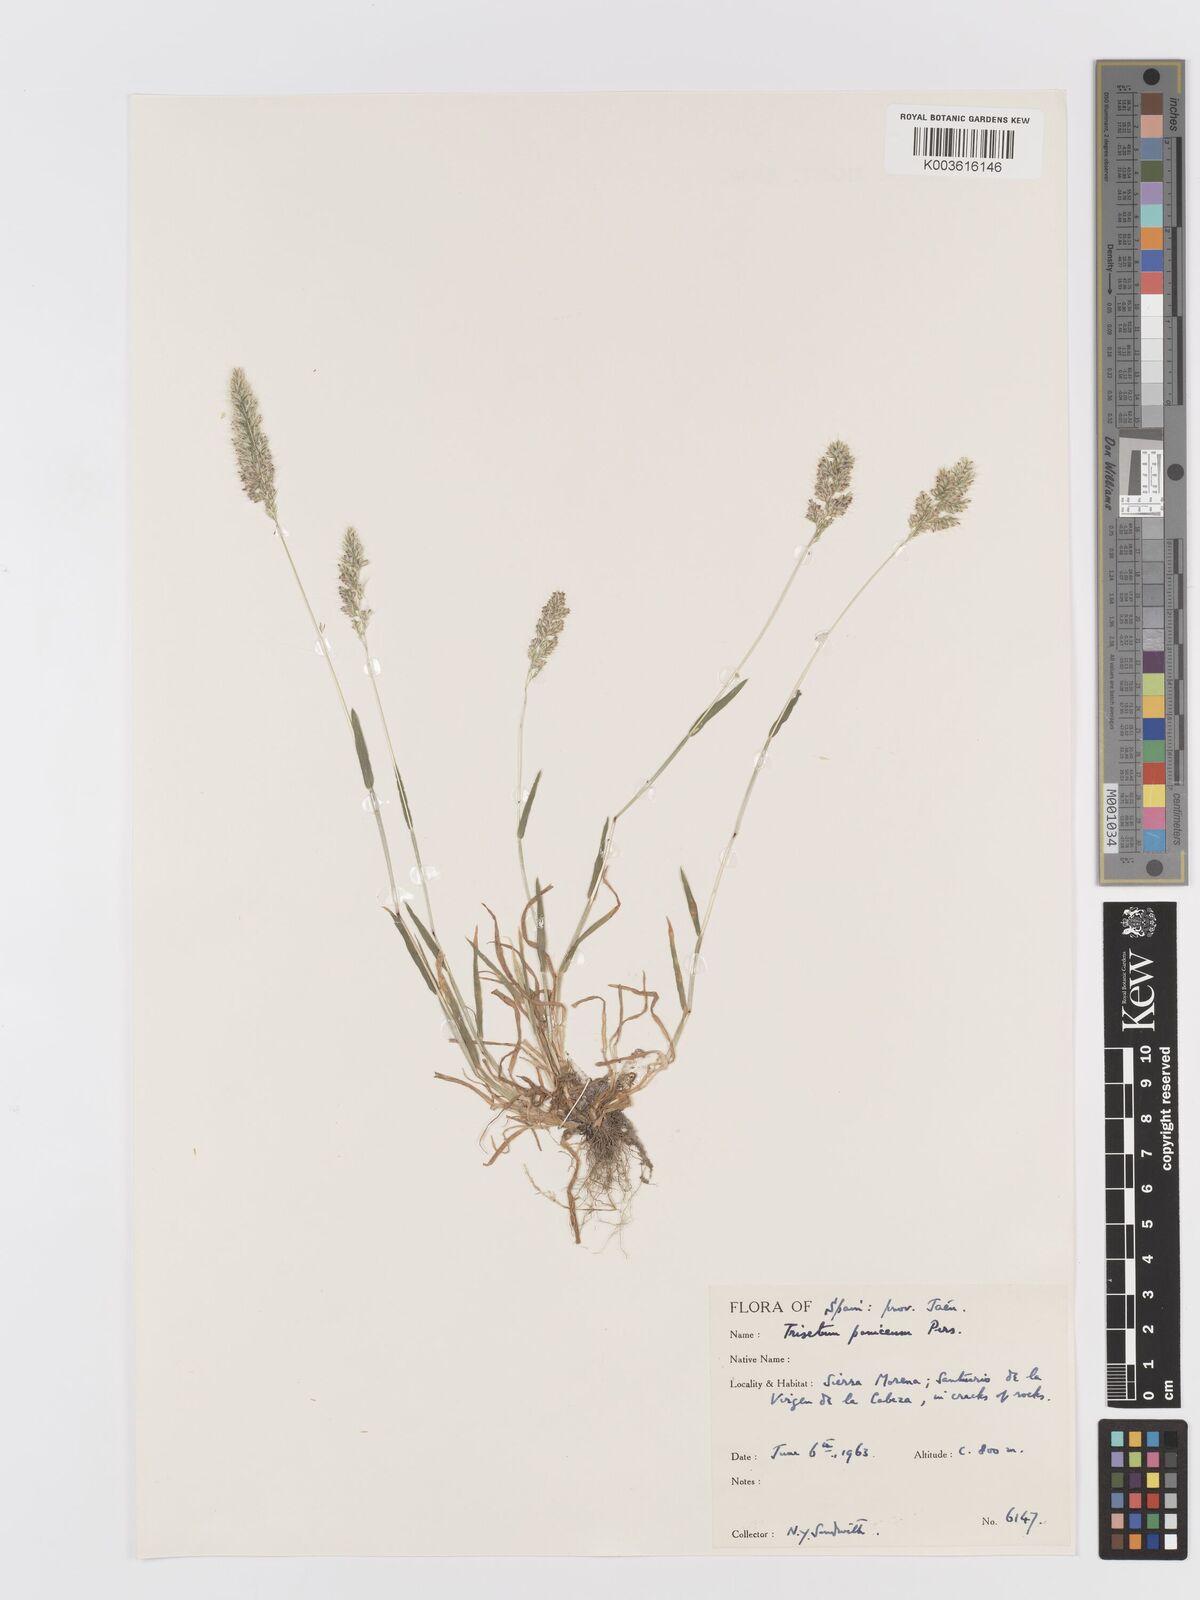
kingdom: Plantae
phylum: Tracheophyta
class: Liliopsida
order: Poales
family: Poaceae
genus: Trisetaria
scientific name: Trisetaria panicea
